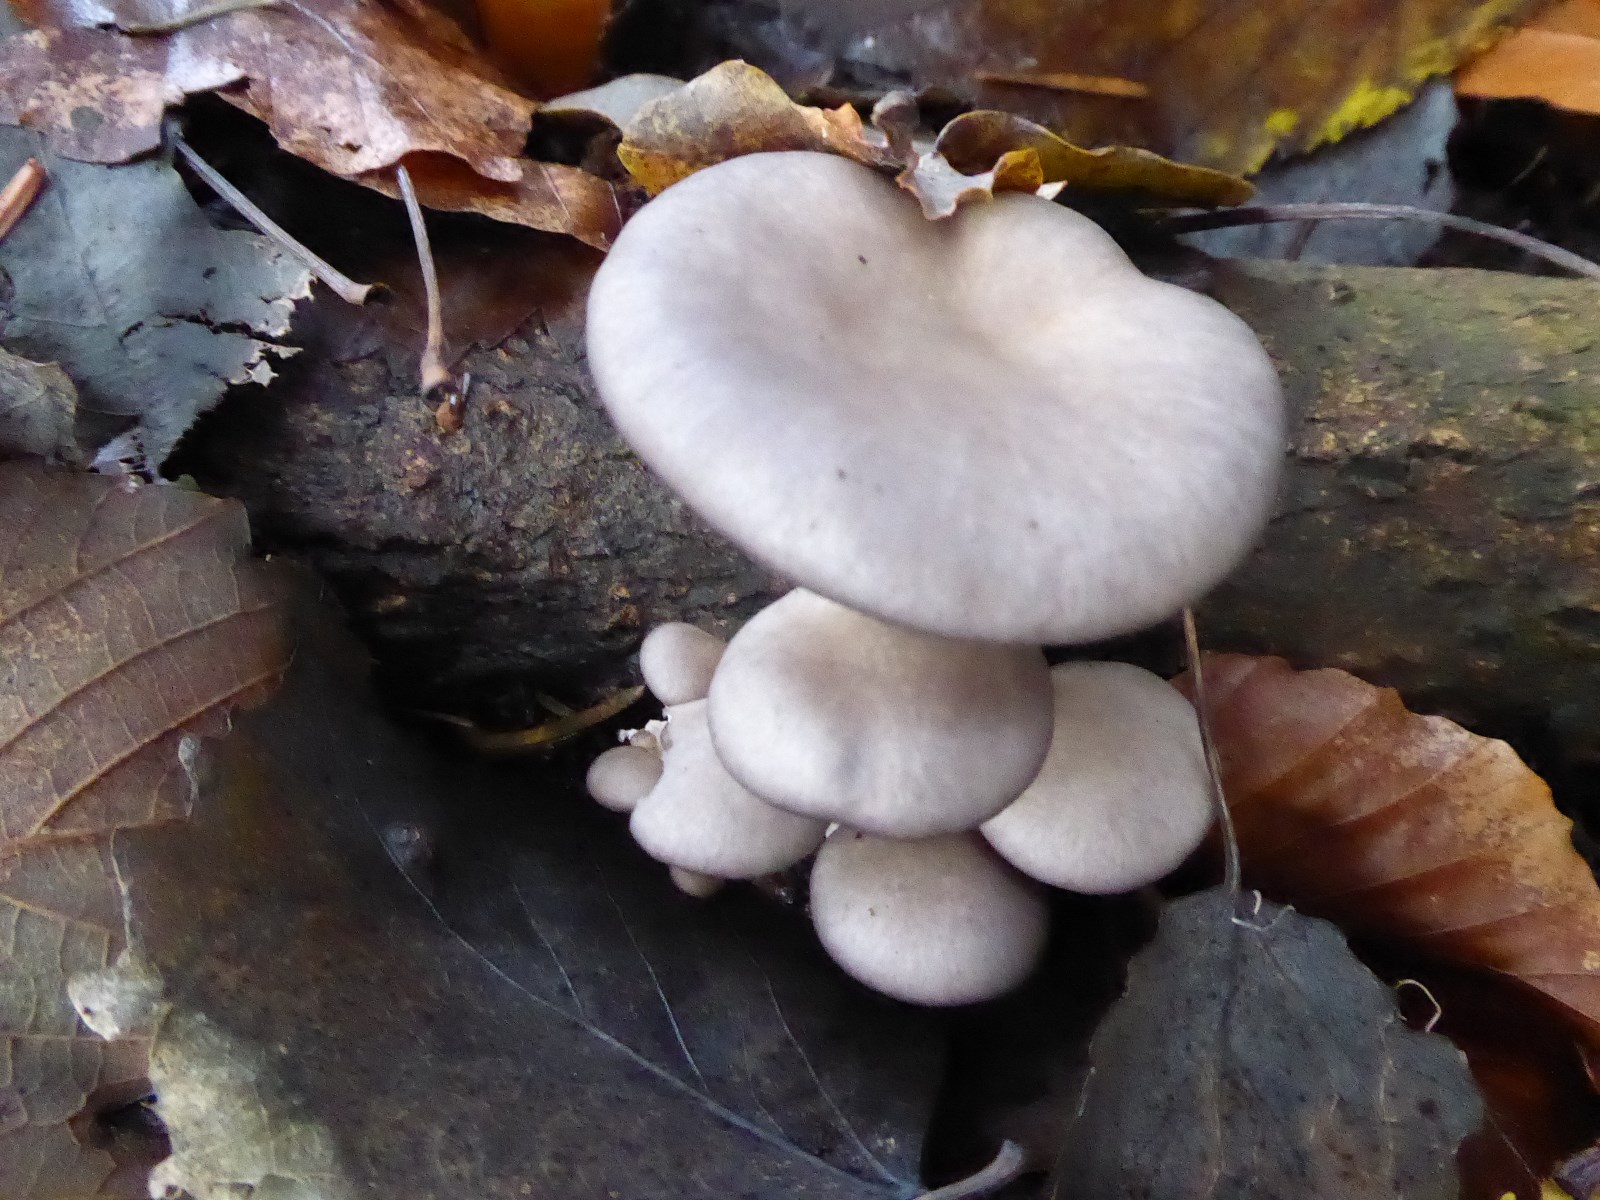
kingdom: Fungi
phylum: Basidiomycota
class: Agaricomycetes
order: Agaricales
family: Pleurotaceae
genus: Pleurotus
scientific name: Pleurotus ostreatus
